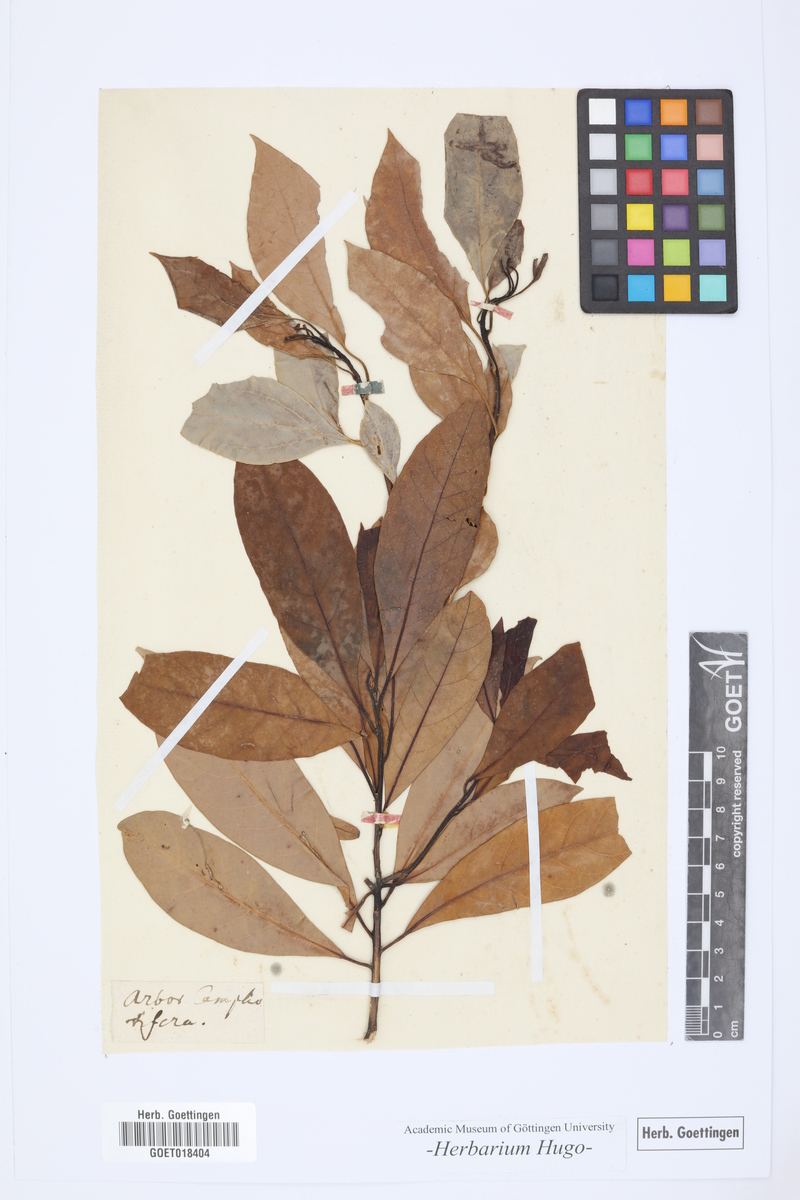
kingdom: Plantae
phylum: Tracheophyta
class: Magnoliopsida
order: Laurales
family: Lauraceae
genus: Cinnamomum
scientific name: Cinnamomum camphora
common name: Camphortree
